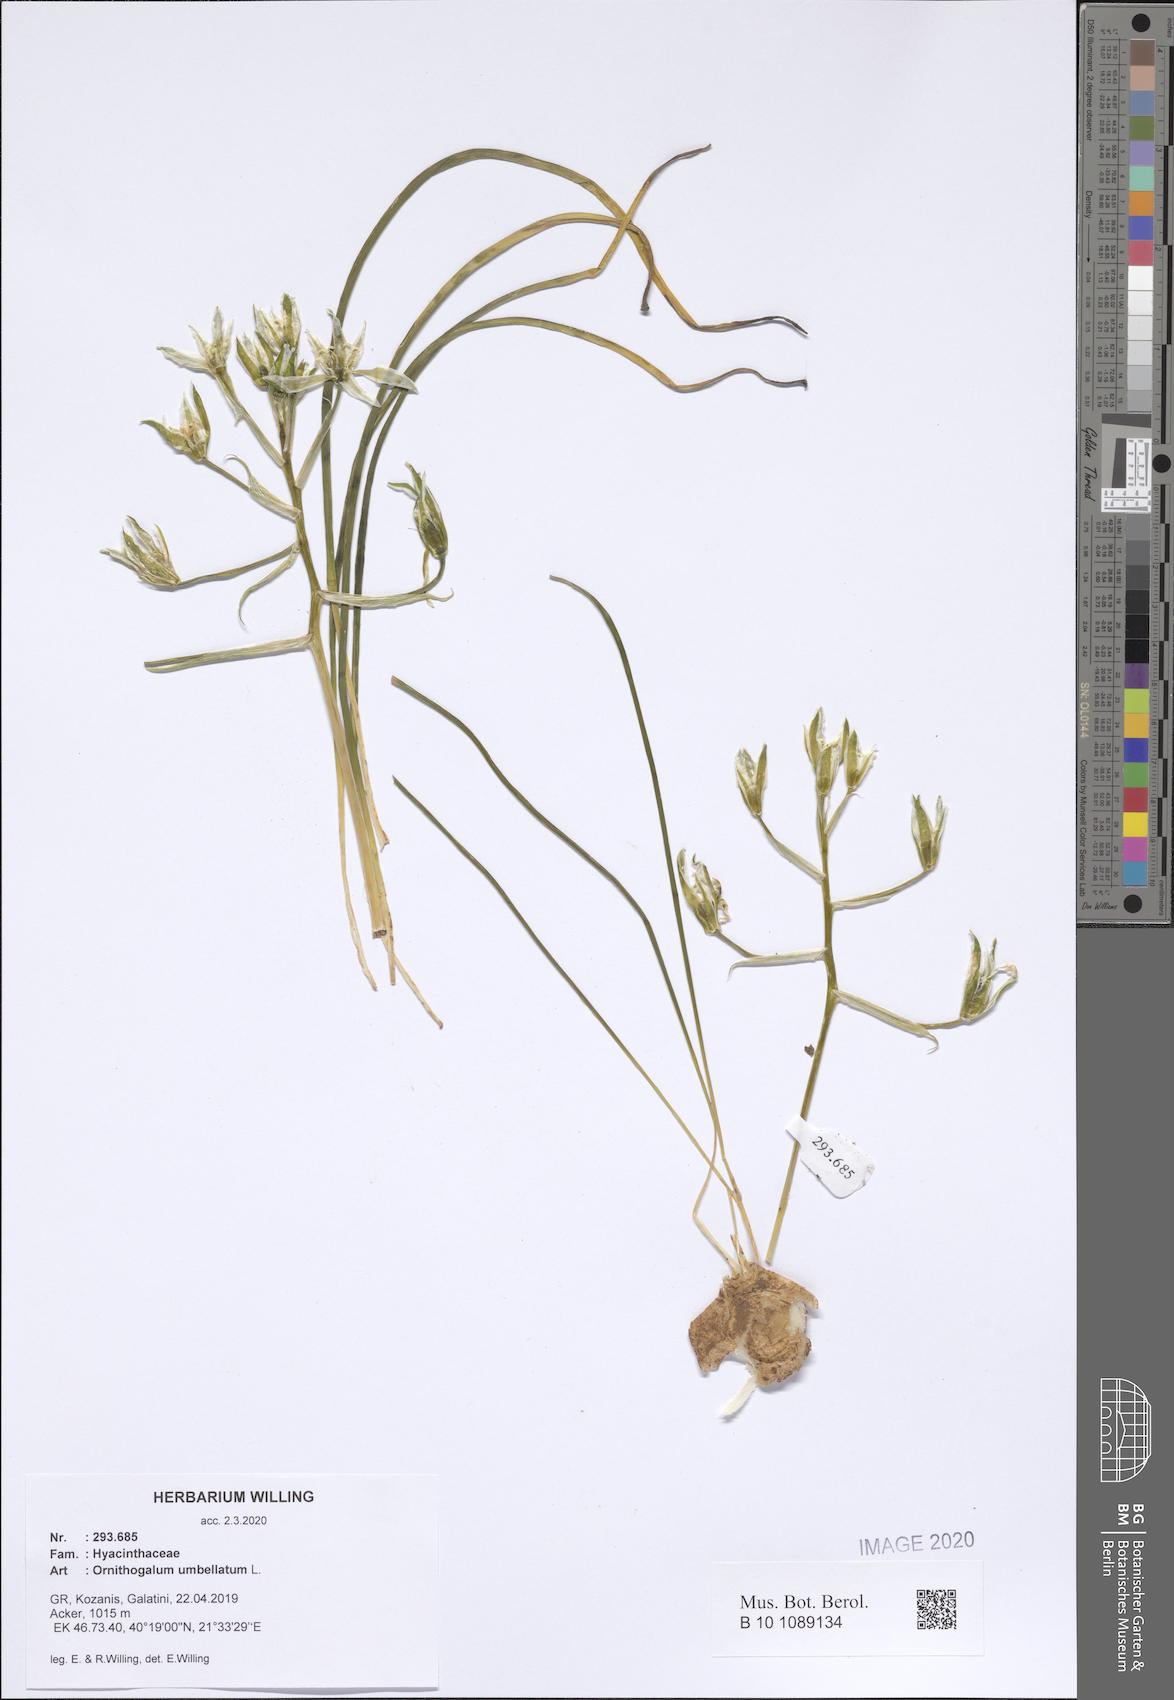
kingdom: Plantae
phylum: Tracheophyta
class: Liliopsida
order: Asparagales
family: Asparagaceae
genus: Ornithogalum
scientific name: Ornithogalum umbellatum
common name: Garden star-of-bethlehem
